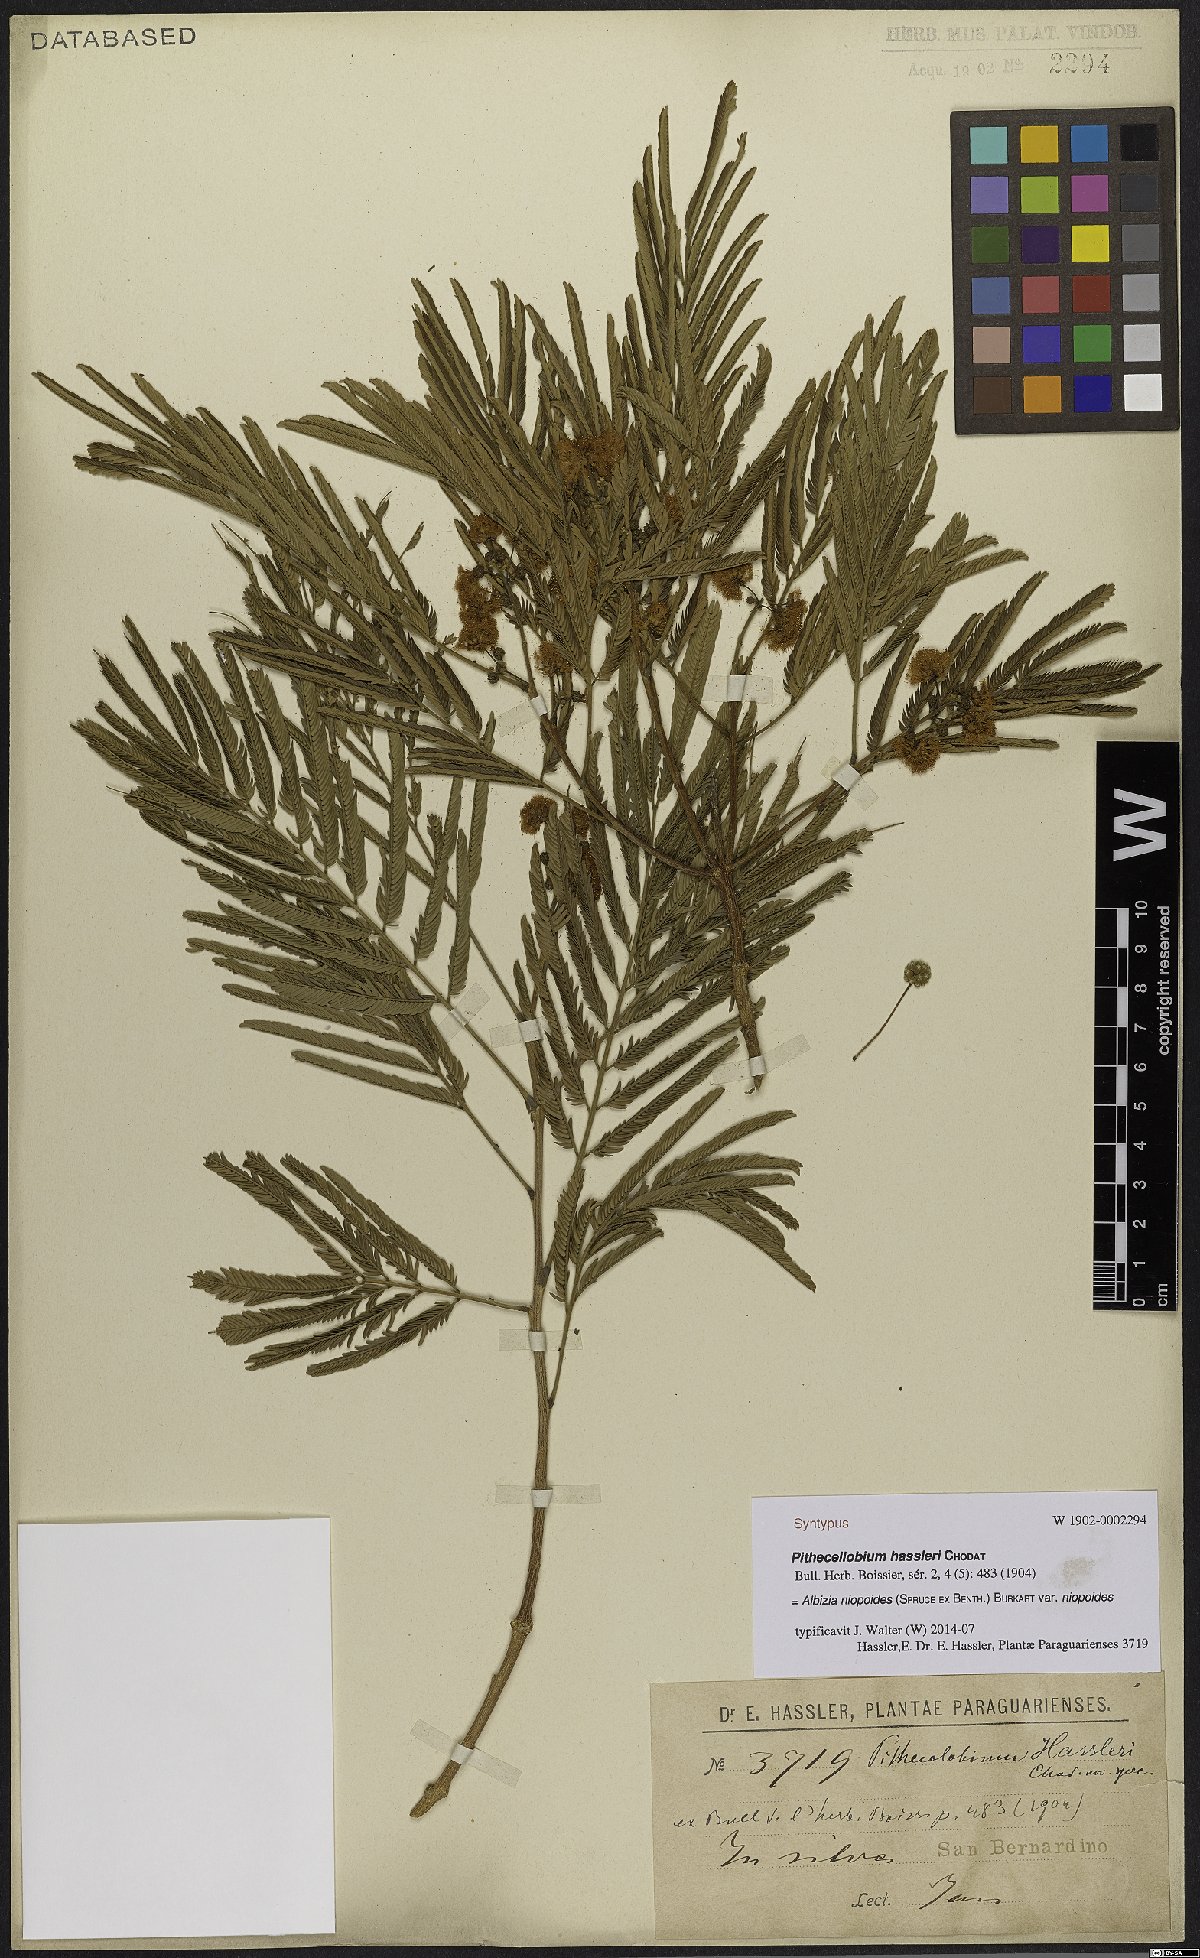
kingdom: Plantae
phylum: Tracheophyta
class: Magnoliopsida
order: Fabales
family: Fabaceae
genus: Albizia
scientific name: Albizia niopoides
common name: Silk tree
